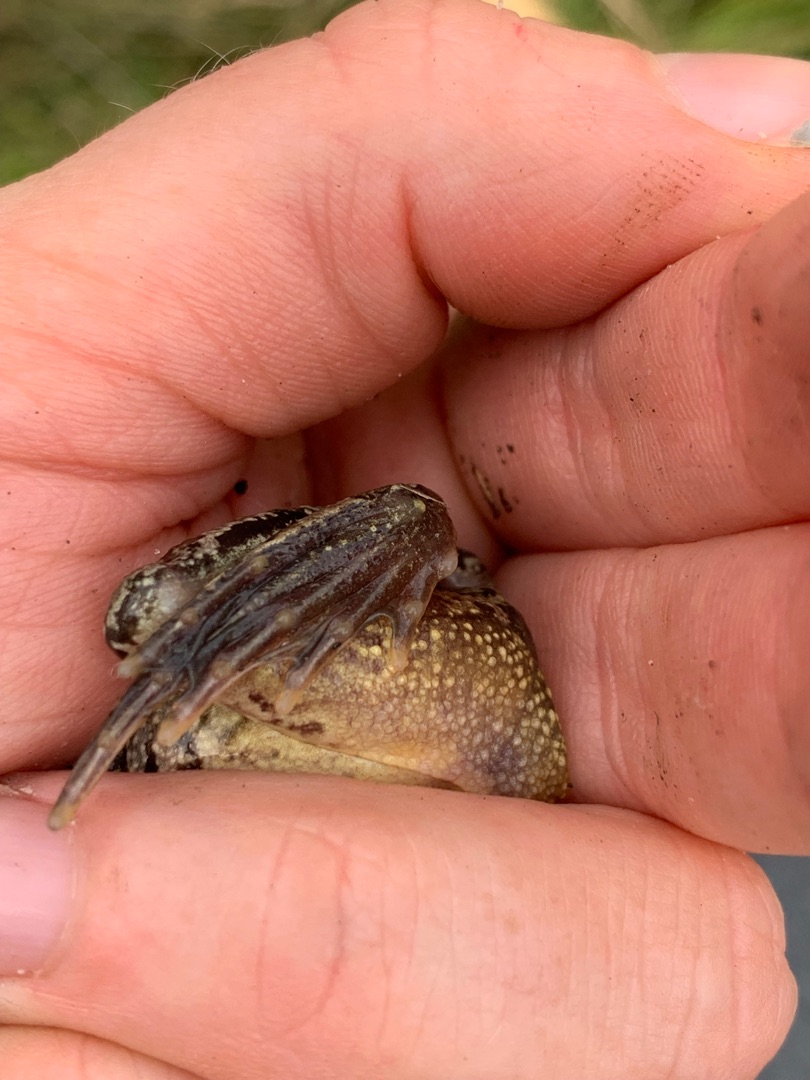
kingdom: Animalia
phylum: Chordata
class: Amphibia
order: Anura
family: Ranidae
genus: Rana
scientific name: Rana temporaria
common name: Butsnudet frø
